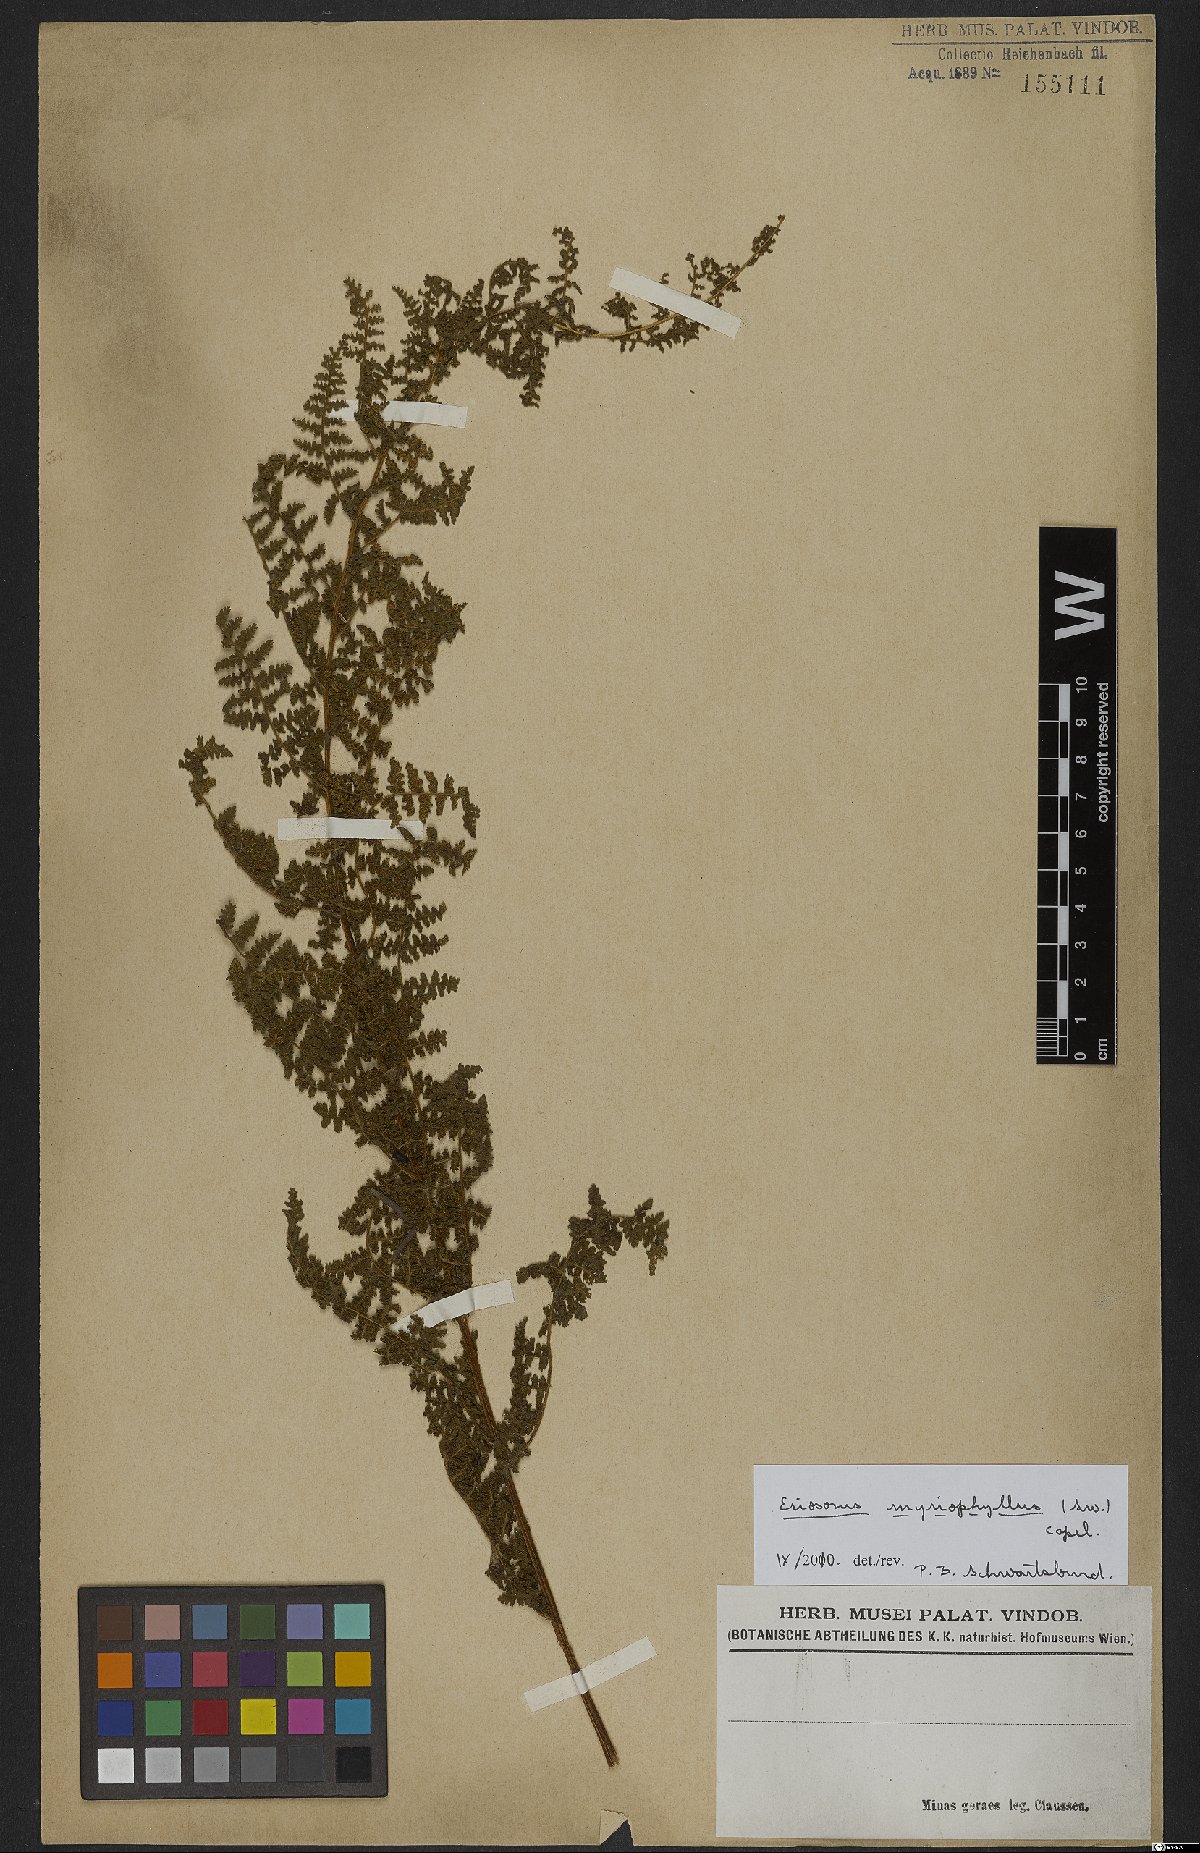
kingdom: Plantae
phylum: Tracheophyta
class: Polypodiopsida
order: Polypodiales
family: Pteridaceae
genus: Tryonia
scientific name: Tryonia myriophylla
